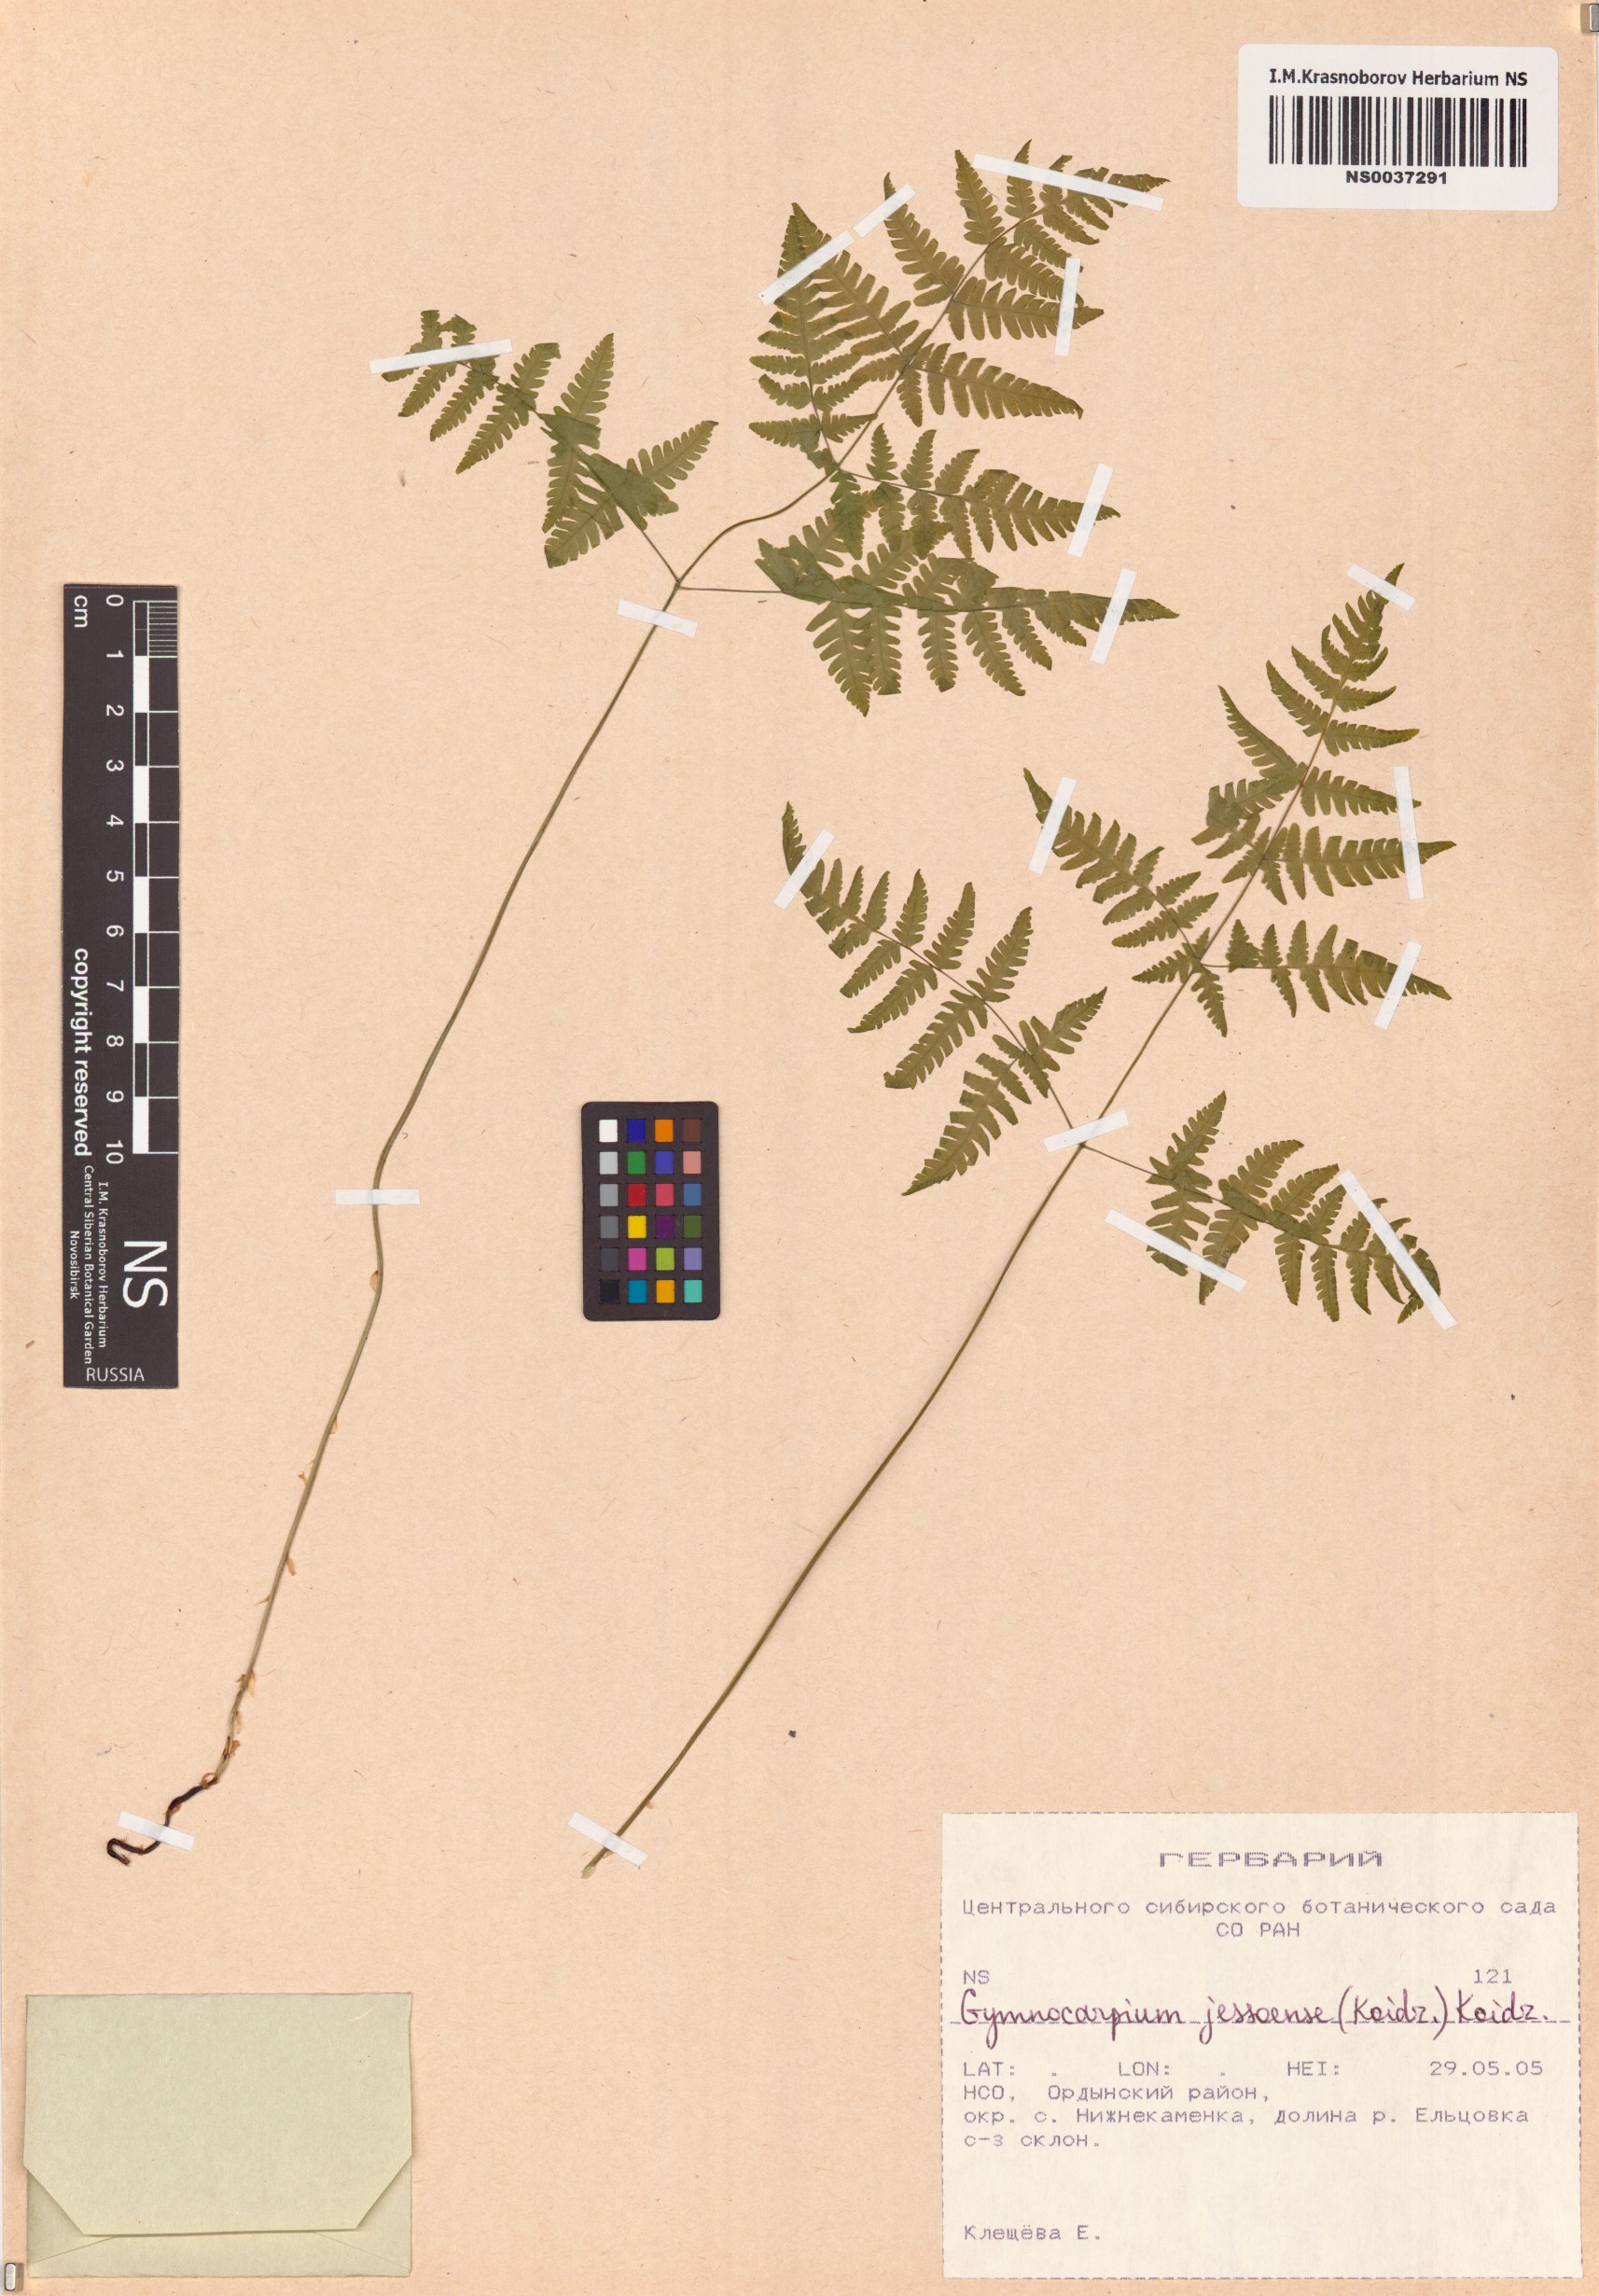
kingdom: Plantae
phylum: Tracheophyta
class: Polypodiopsida
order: Polypodiales
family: Cystopteridaceae
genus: Gymnocarpium
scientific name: Gymnocarpium jessoense
